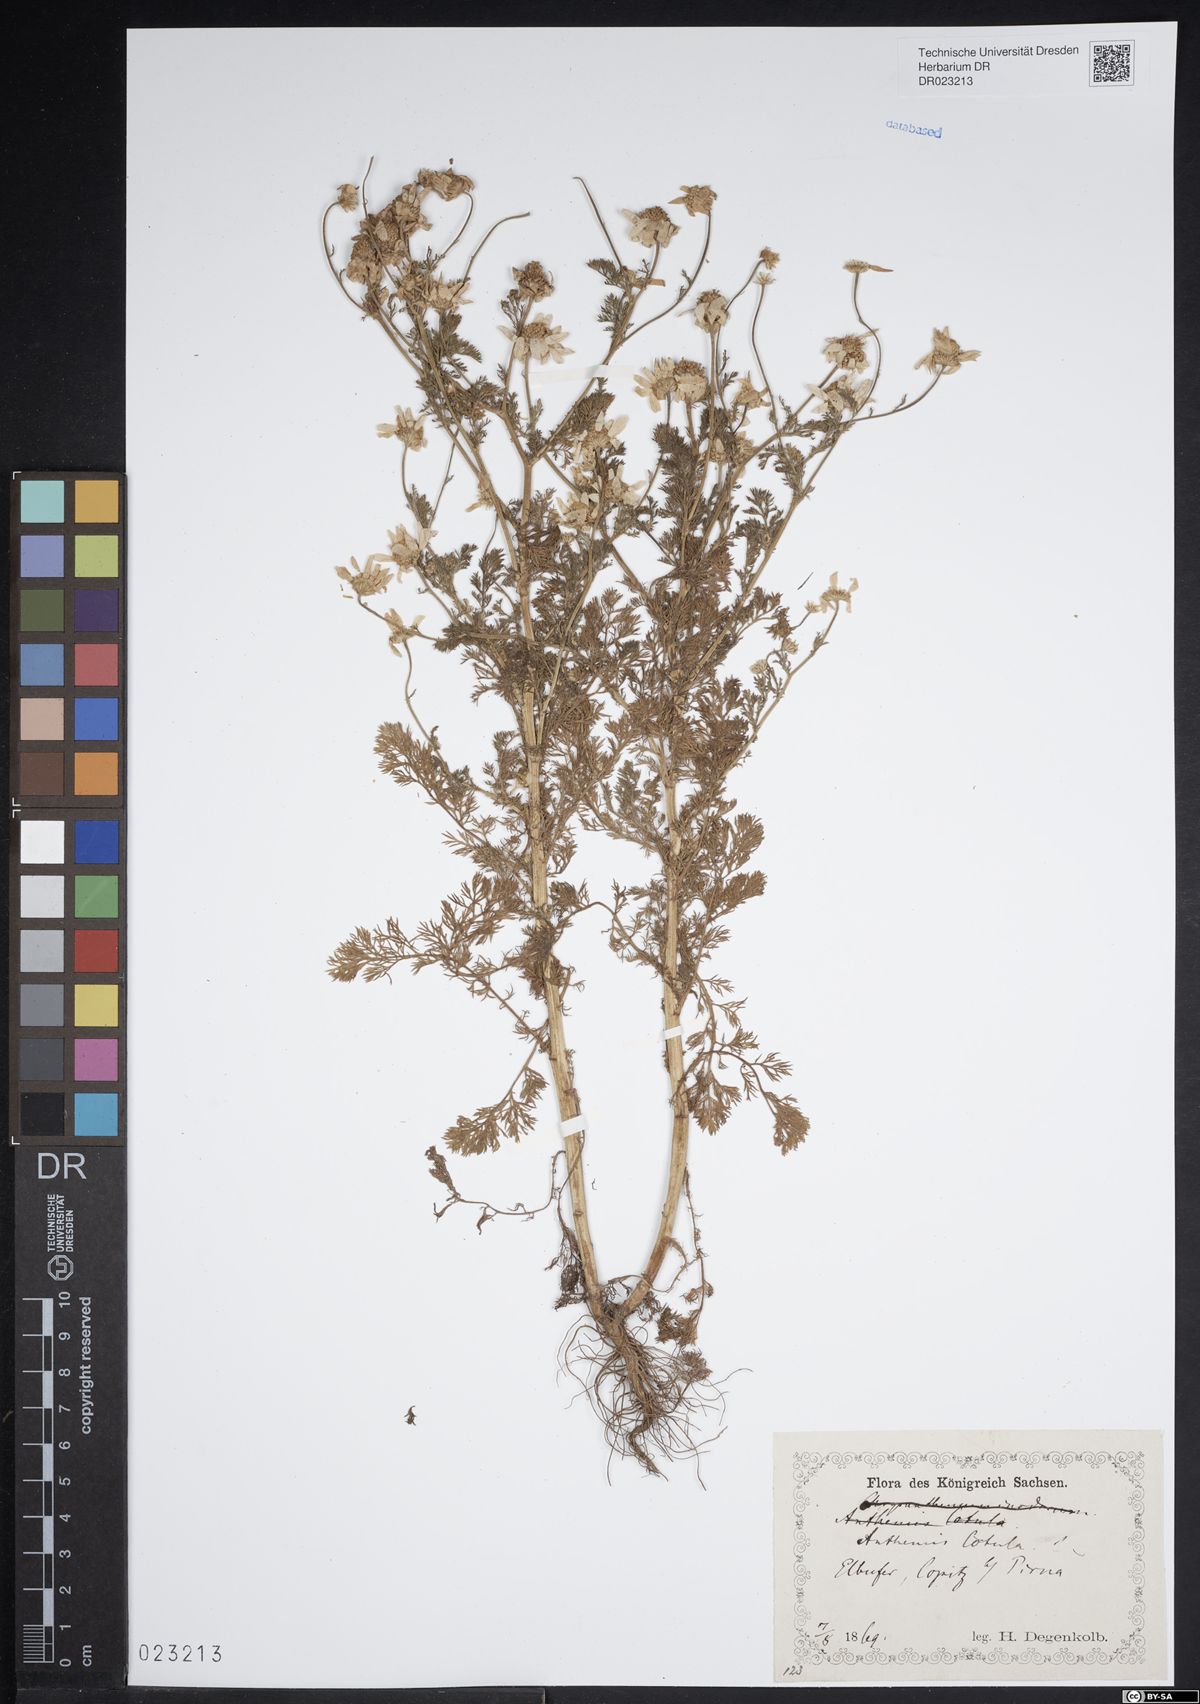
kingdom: Plantae
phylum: Tracheophyta
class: Magnoliopsida
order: Asterales
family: Asteraceae
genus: Anthemis
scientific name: Anthemis cotula
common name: Stinking chamomile
